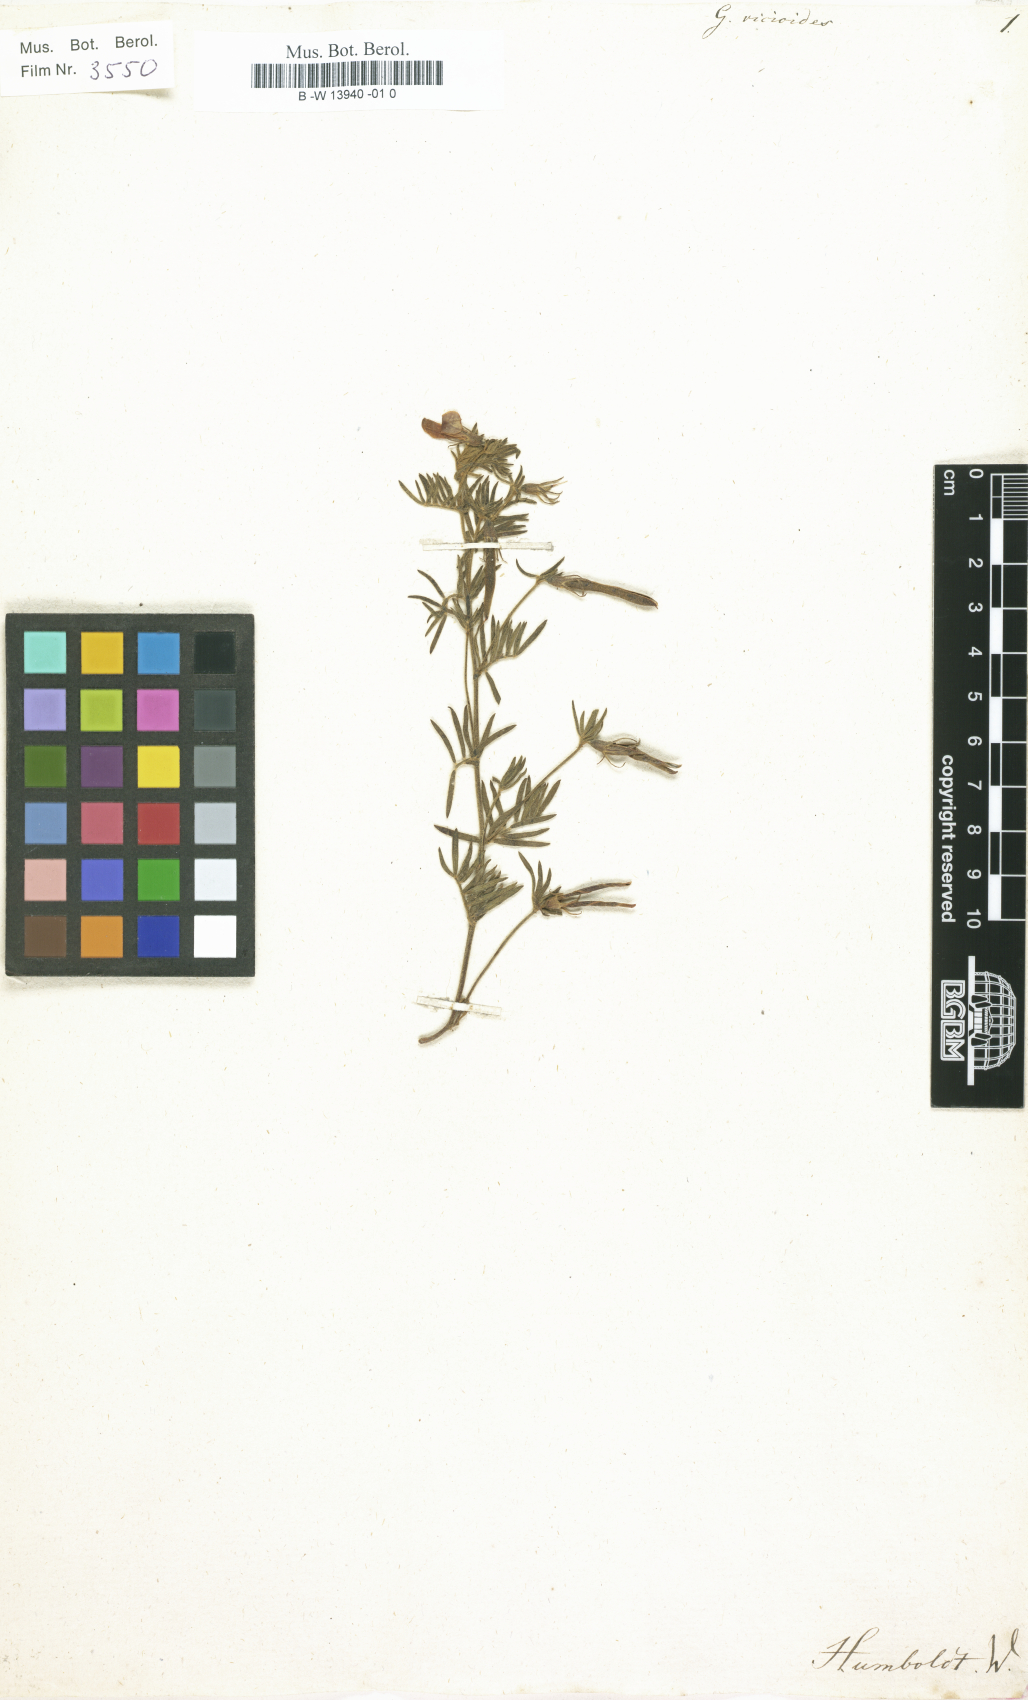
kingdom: Plantae
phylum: Tracheophyta
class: Magnoliopsida
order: Fabales
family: Fabaceae
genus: Galega
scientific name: Galega
